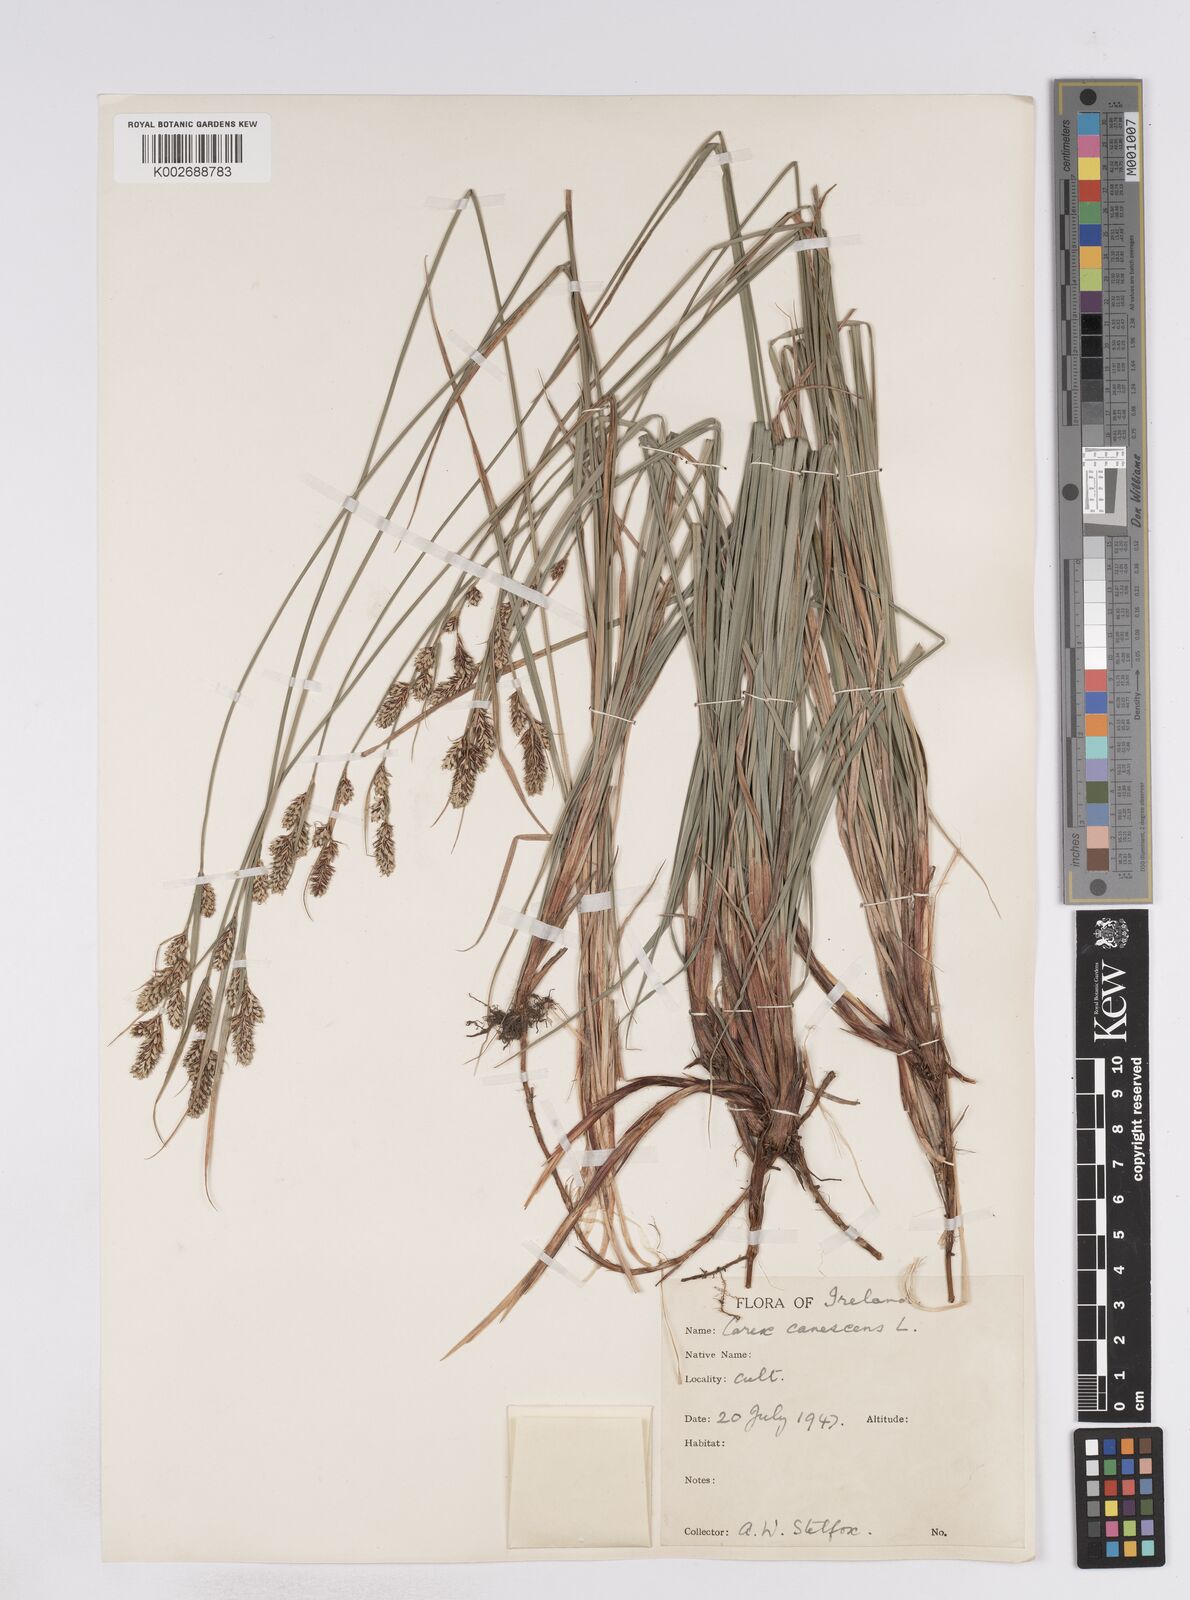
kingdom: Plantae
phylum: Tracheophyta
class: Liliopsida
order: Poales
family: Cyperaceae
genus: Carex
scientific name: Carex buxbaumii
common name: Club sedge
